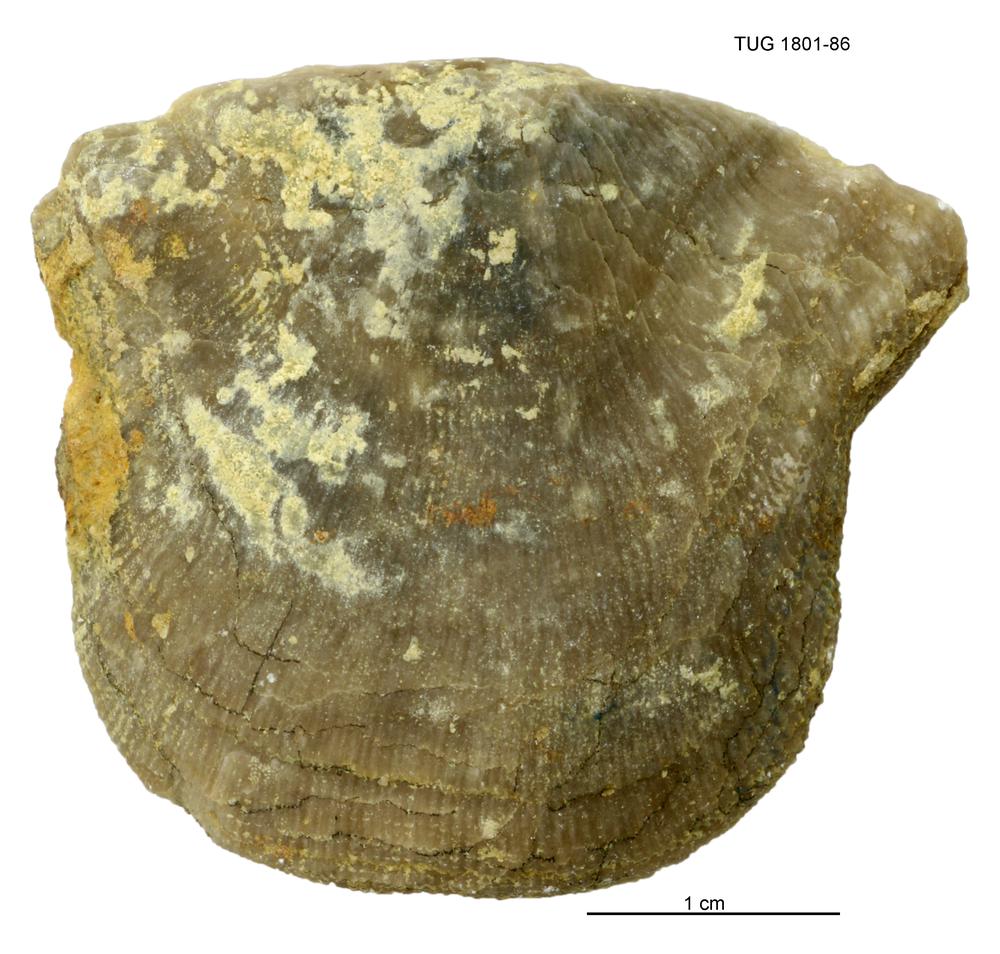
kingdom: Animalia
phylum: Brachiopoda
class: Rhynchonellata
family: Clitambonitidae
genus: Clinambon
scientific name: Clinambon anomalus
